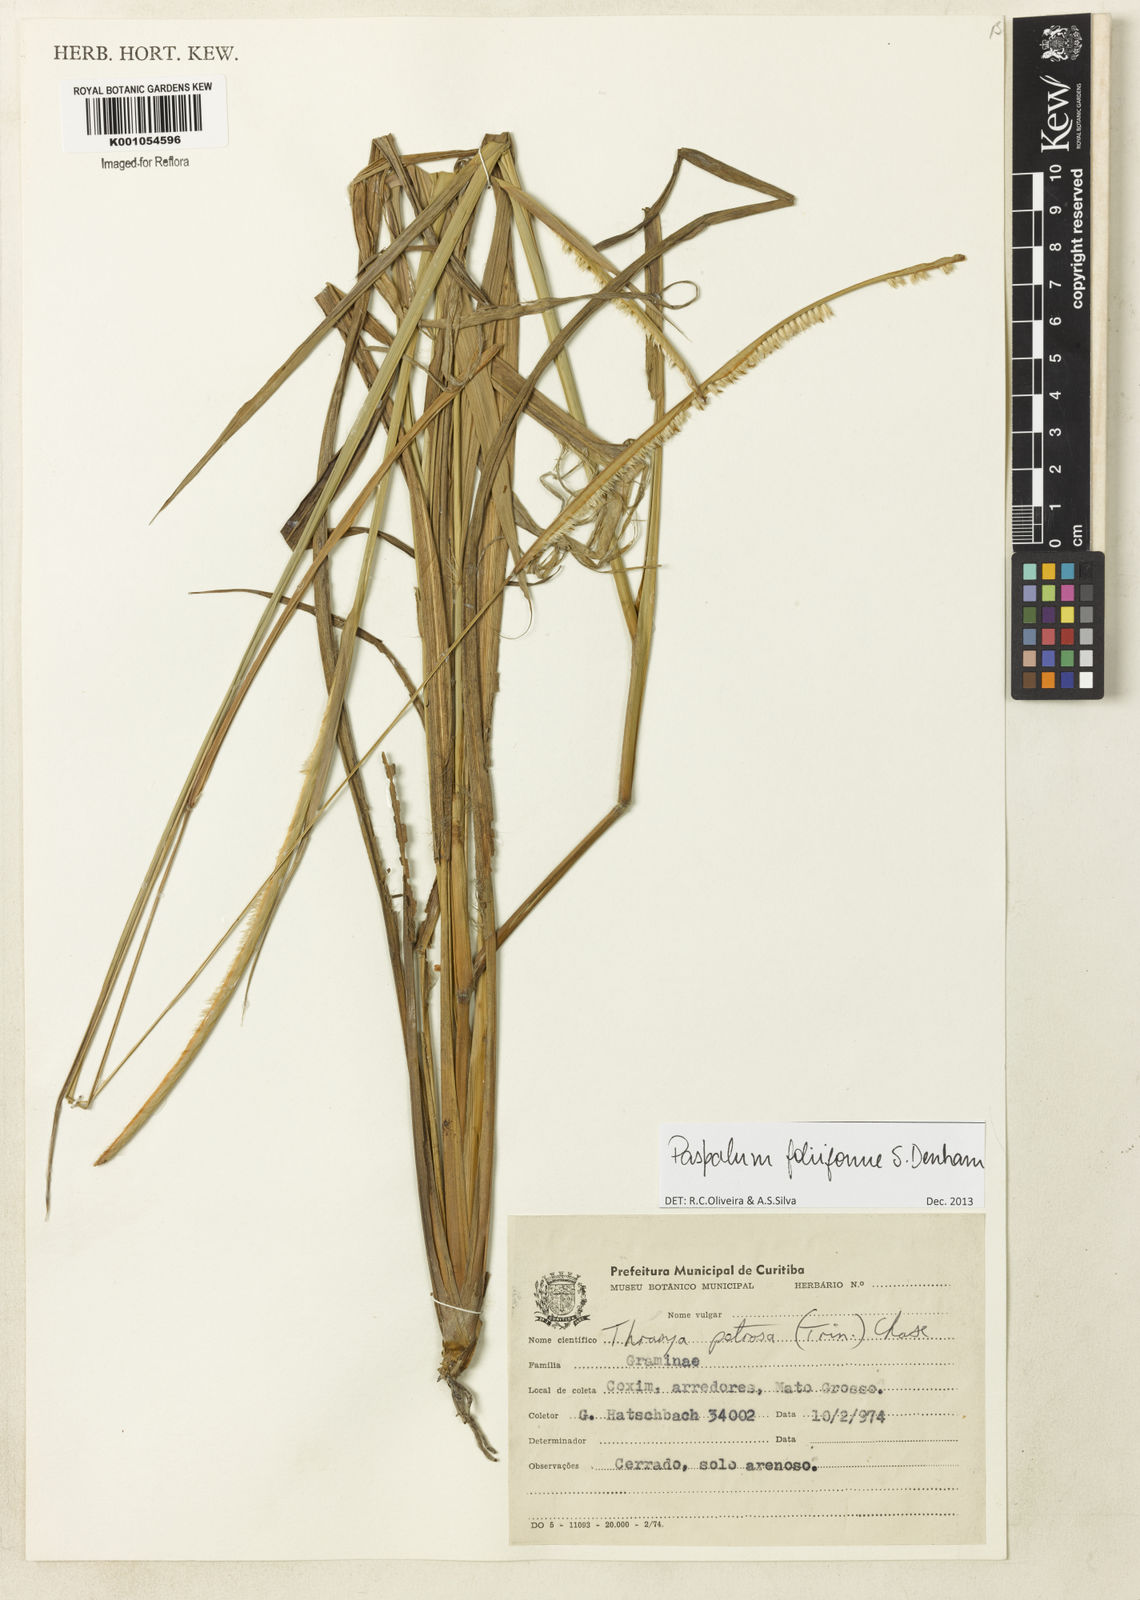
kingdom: Plantae
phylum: Tracheophyta
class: Liliopsida
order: Poales
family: Poaceae
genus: Paspalum
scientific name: Paspalum foliiforme
